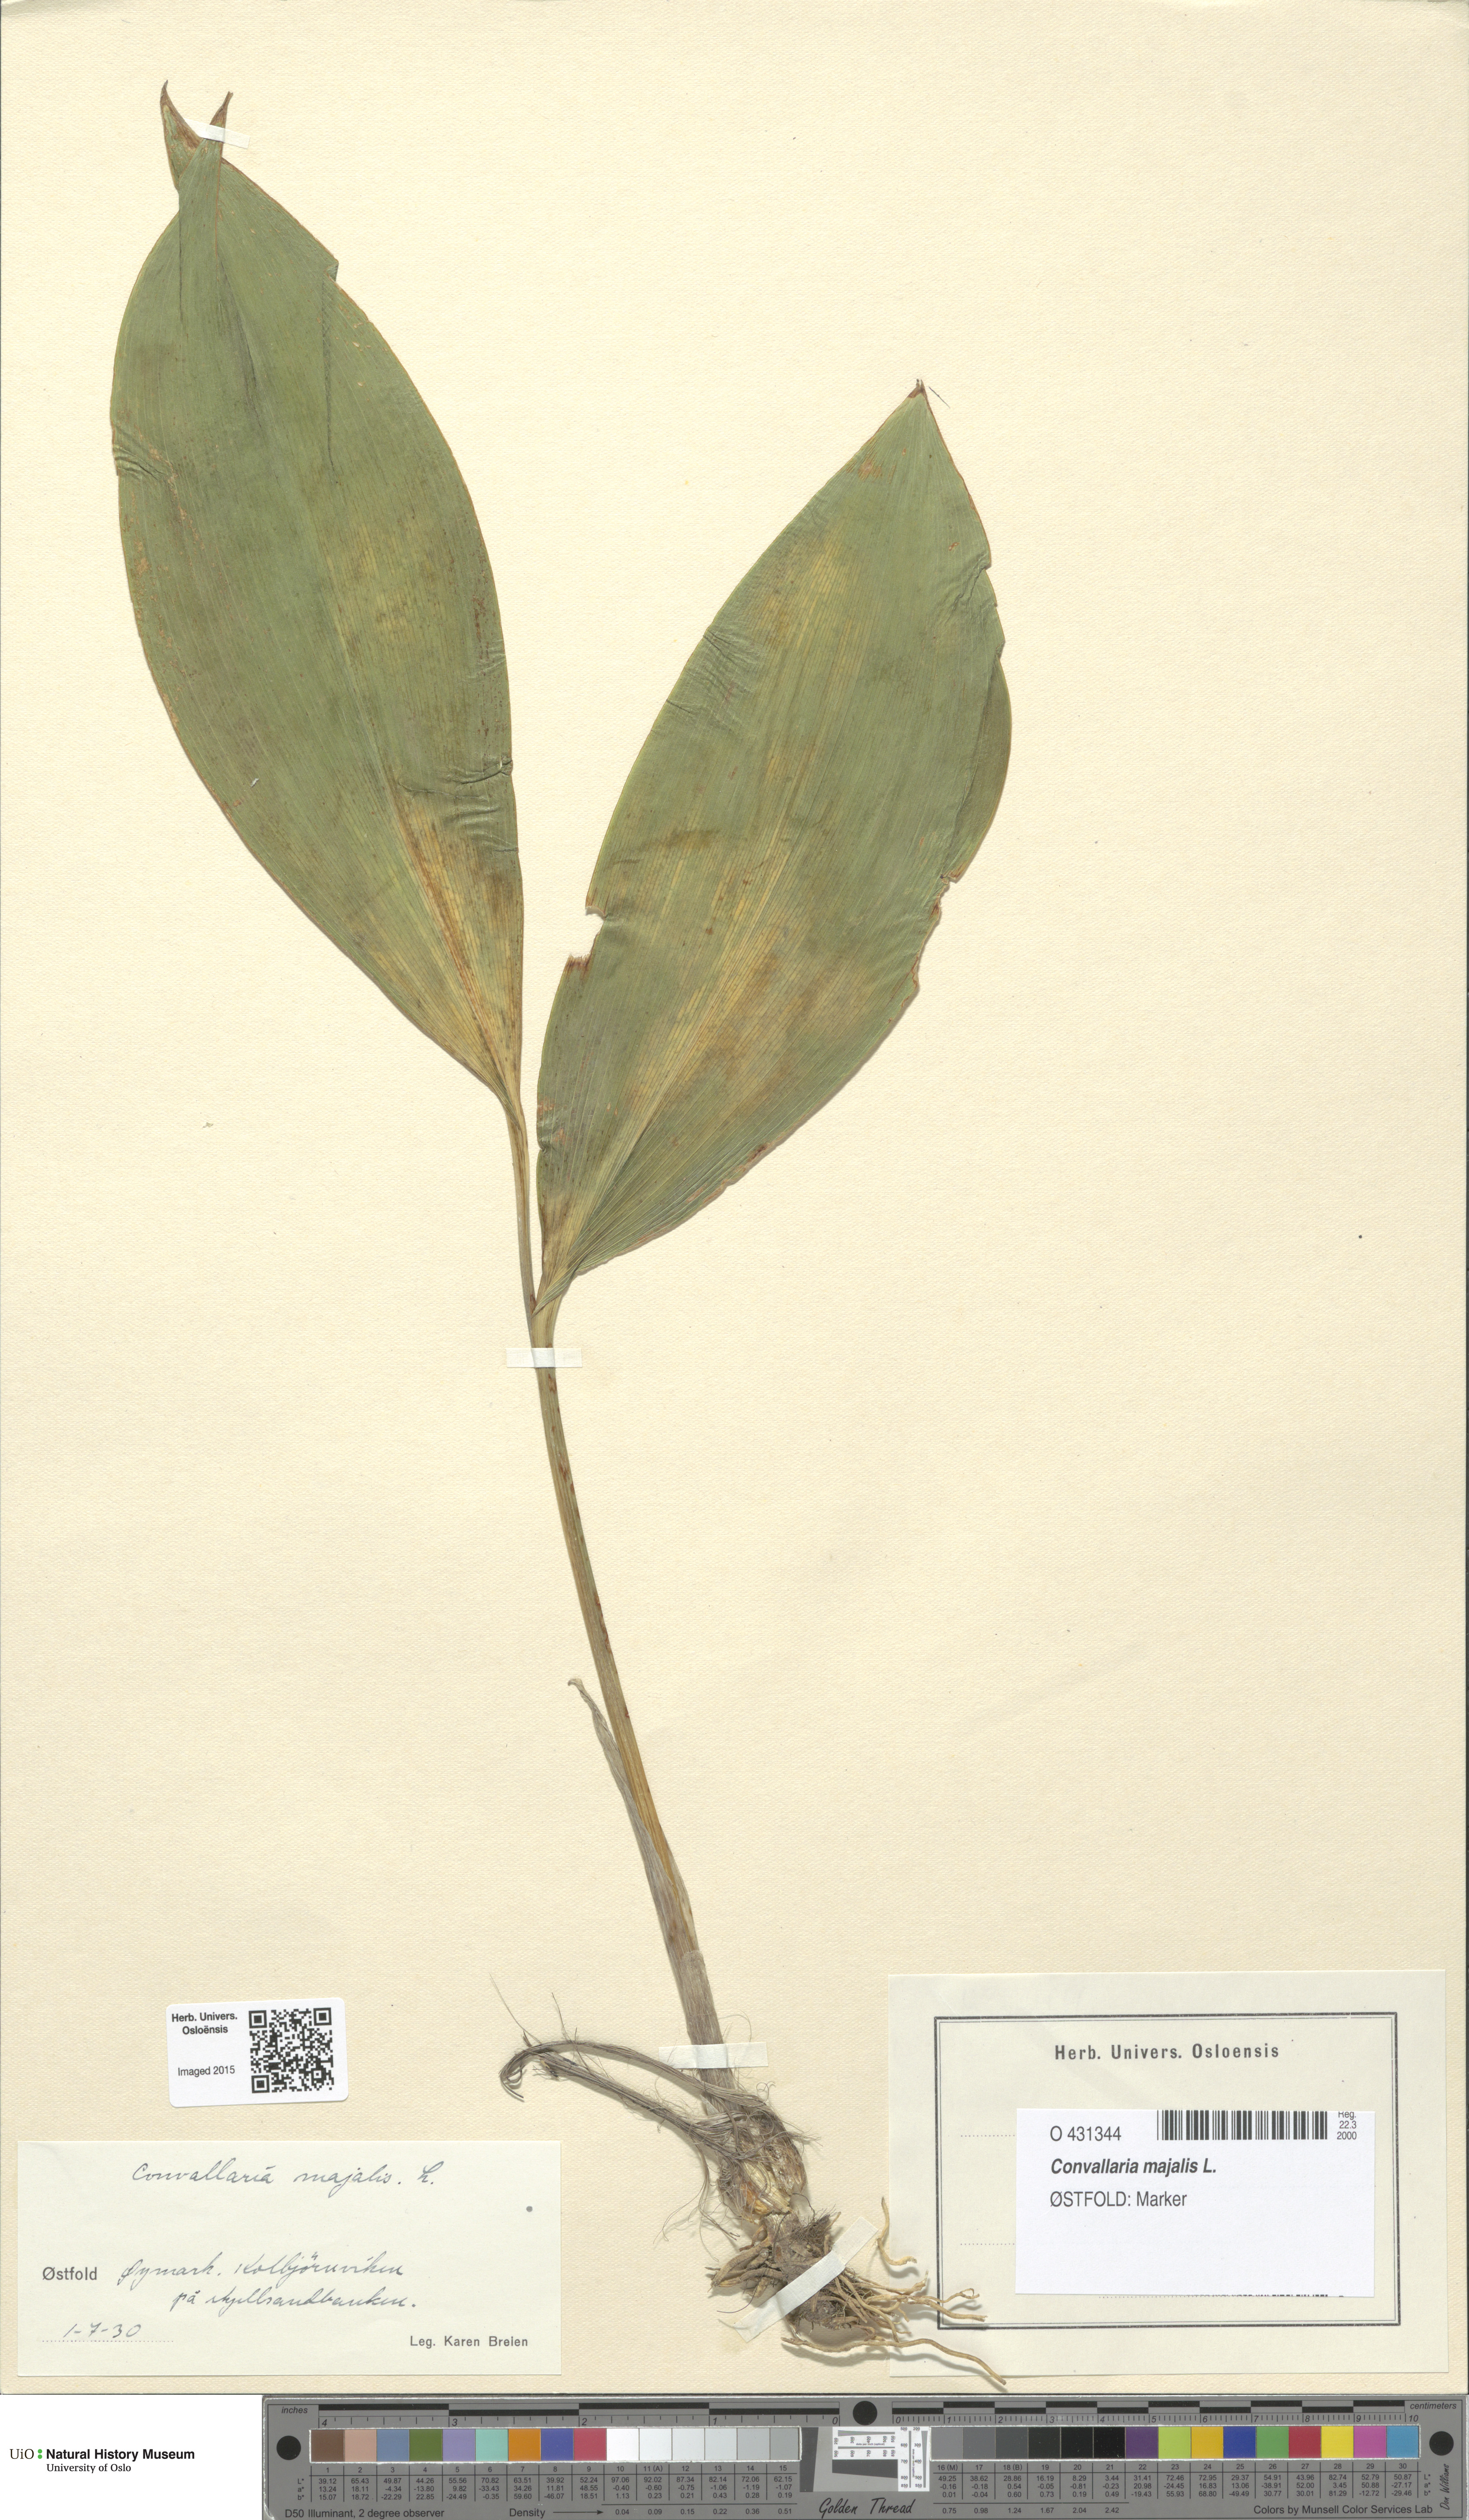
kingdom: Plantae
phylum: Tracheophyta
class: Liliopsida
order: Asparagales
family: Asparagaceae
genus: Convallaria
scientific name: Convallaria majalis
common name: Lily-of-the-valley
